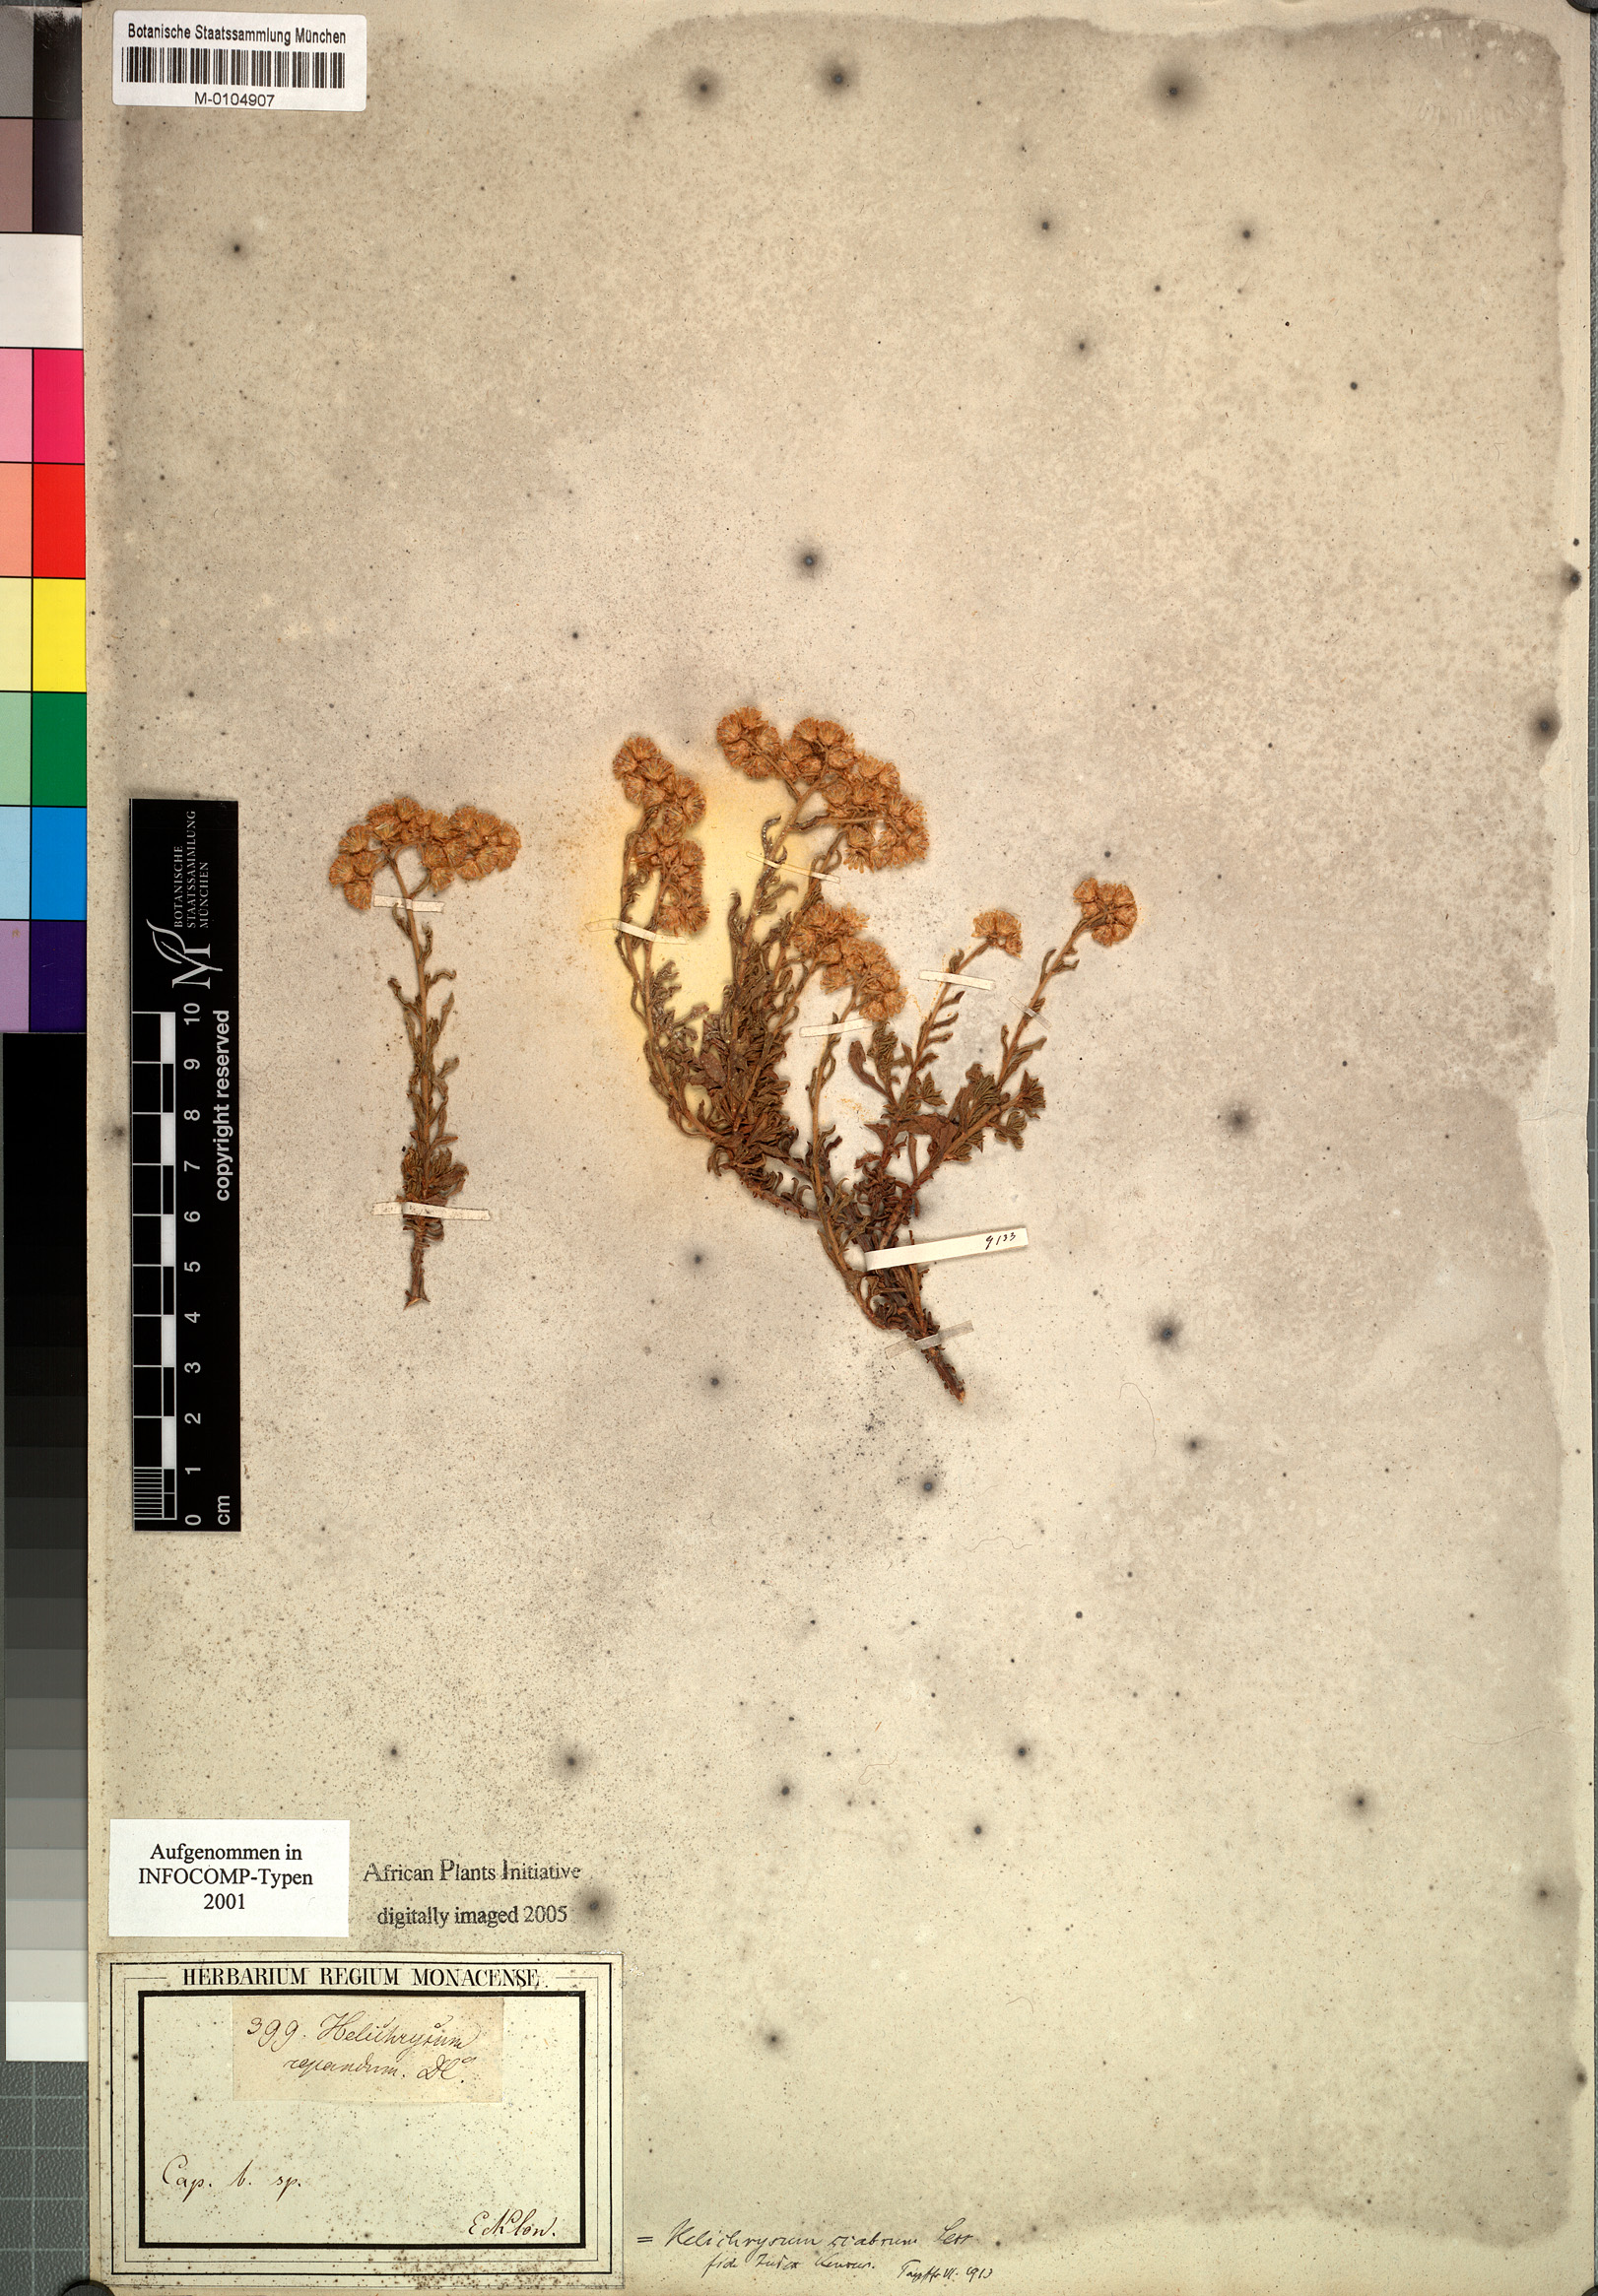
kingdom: Plantae
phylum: Tracheophyta
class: Magnoliopsida
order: Asterales
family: Asteraceae
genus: Helichrysum
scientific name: Helichrysum scabrum
